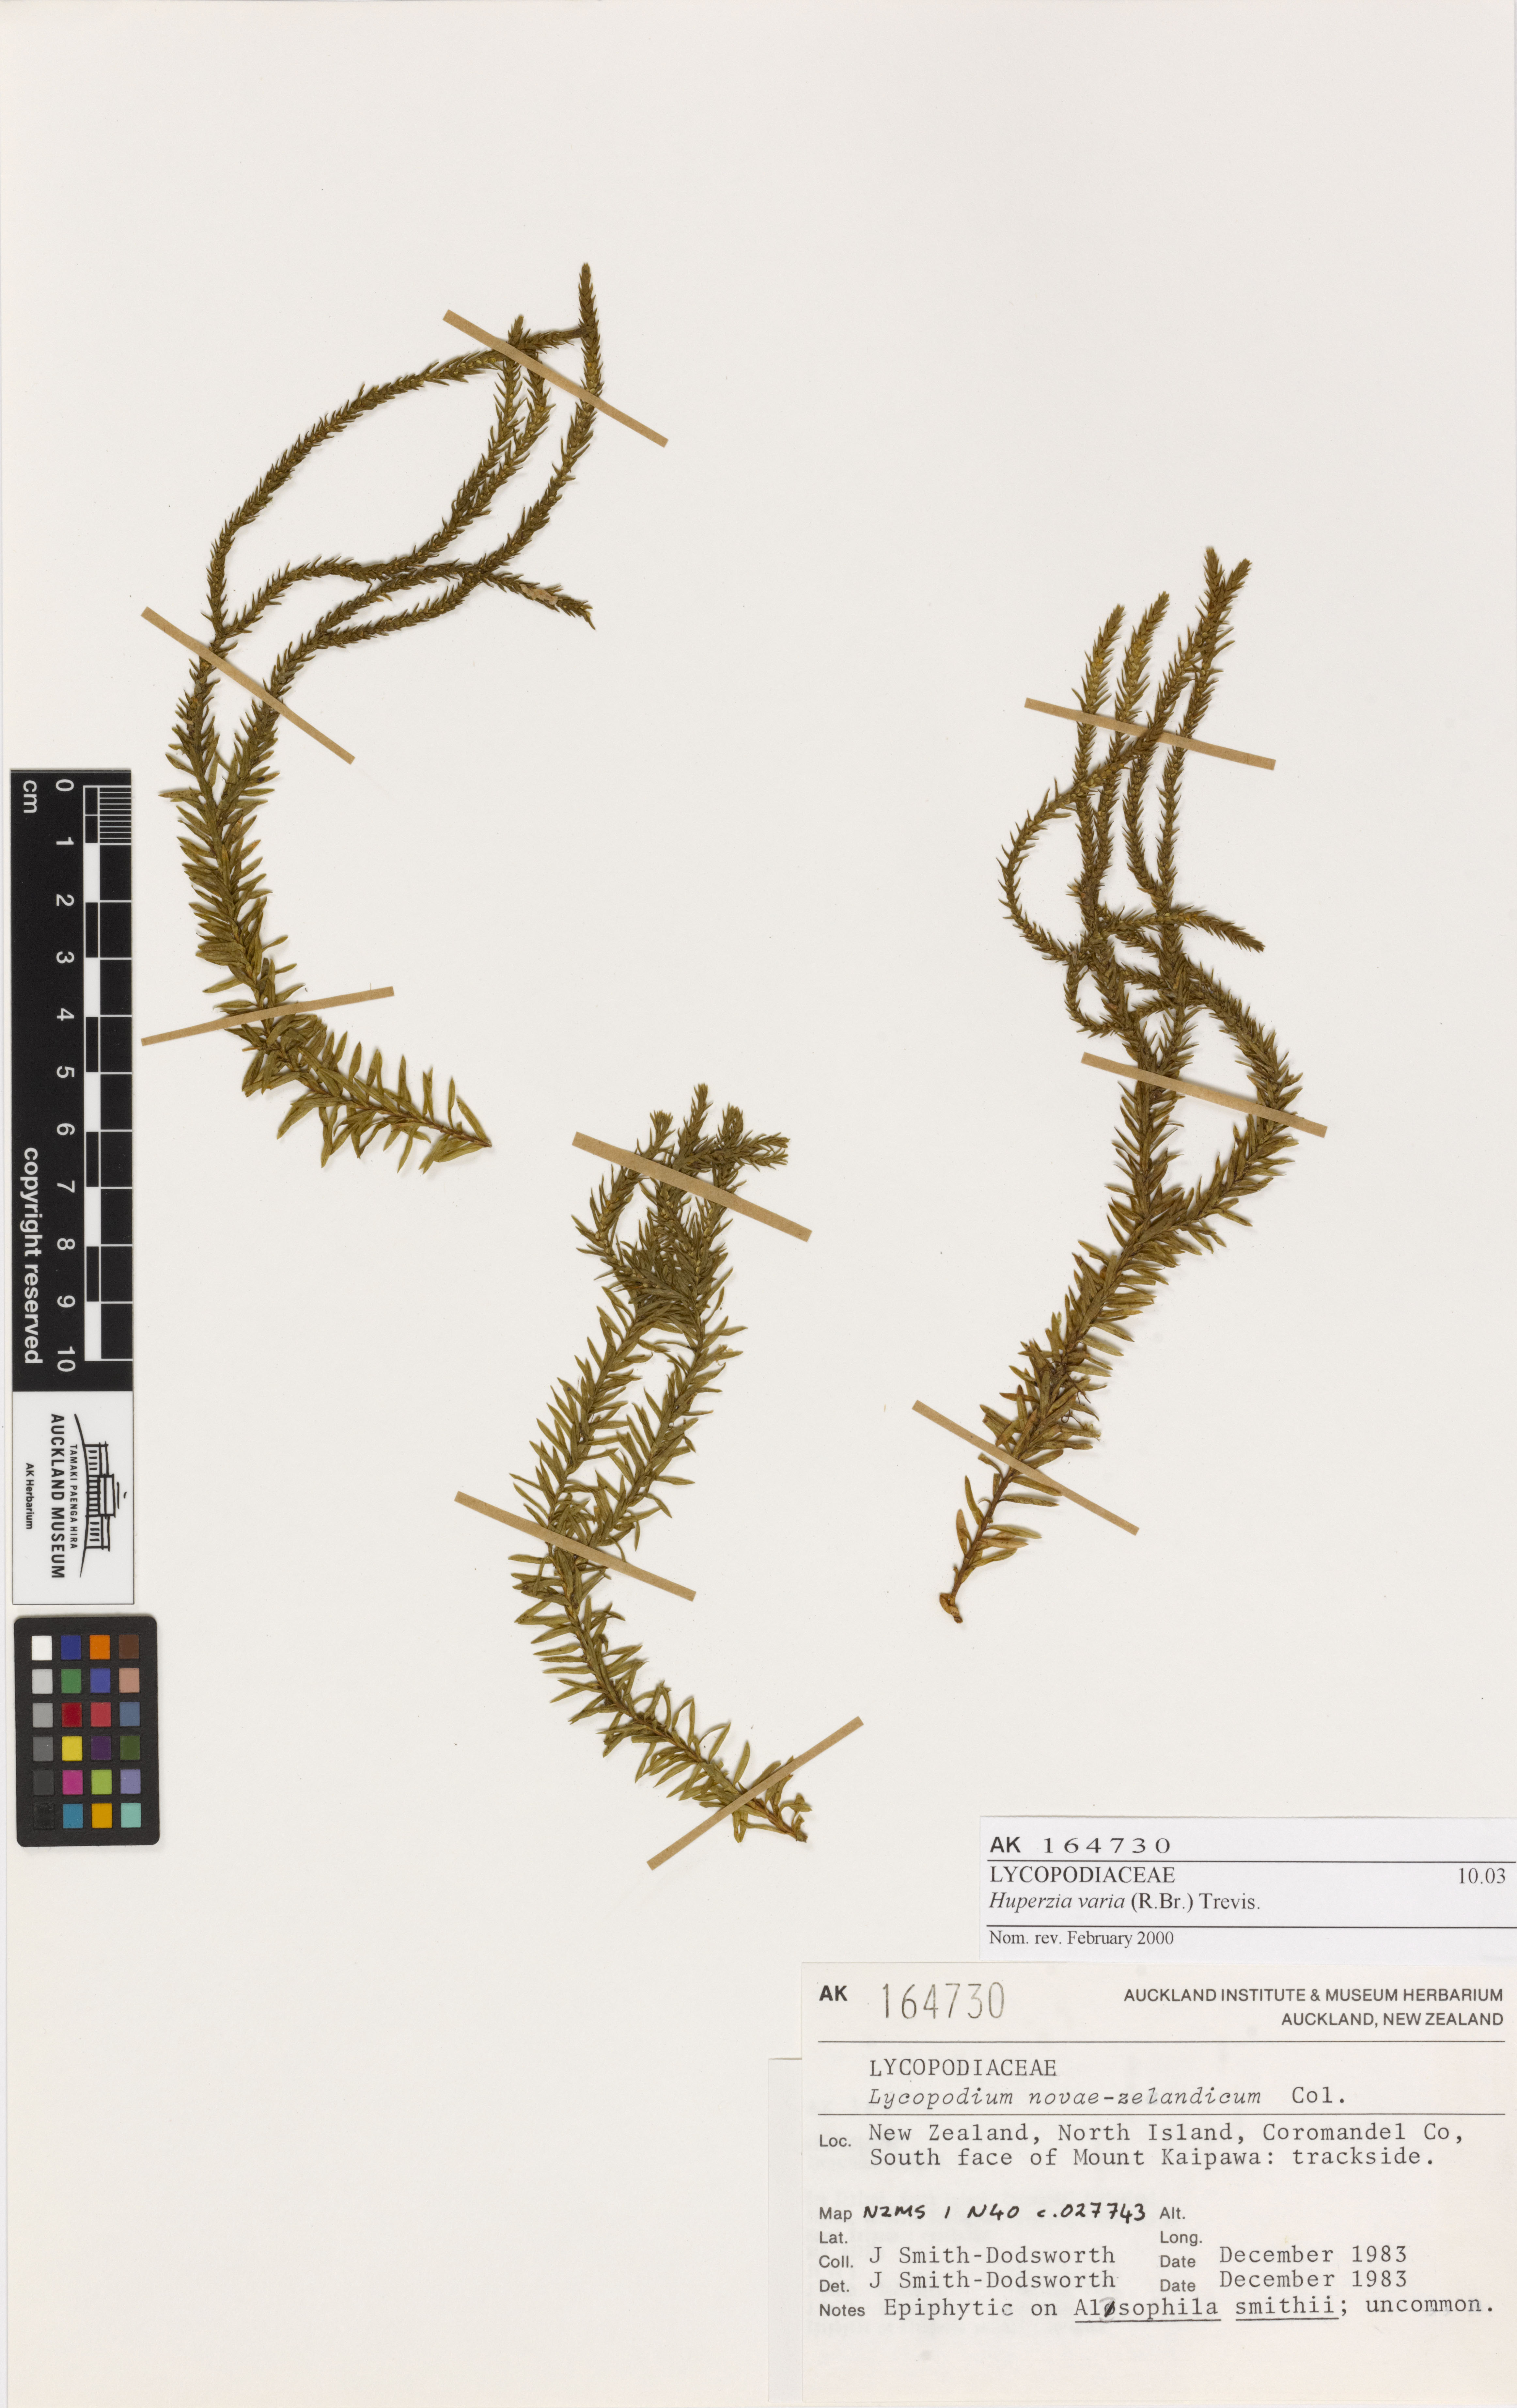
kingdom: Plantae
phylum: Tracheophyta
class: Lycopodiopsida
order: Lycopodiales
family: Lycopodiaceae
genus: Phlegmariurus
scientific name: Phlegmariurus varius
